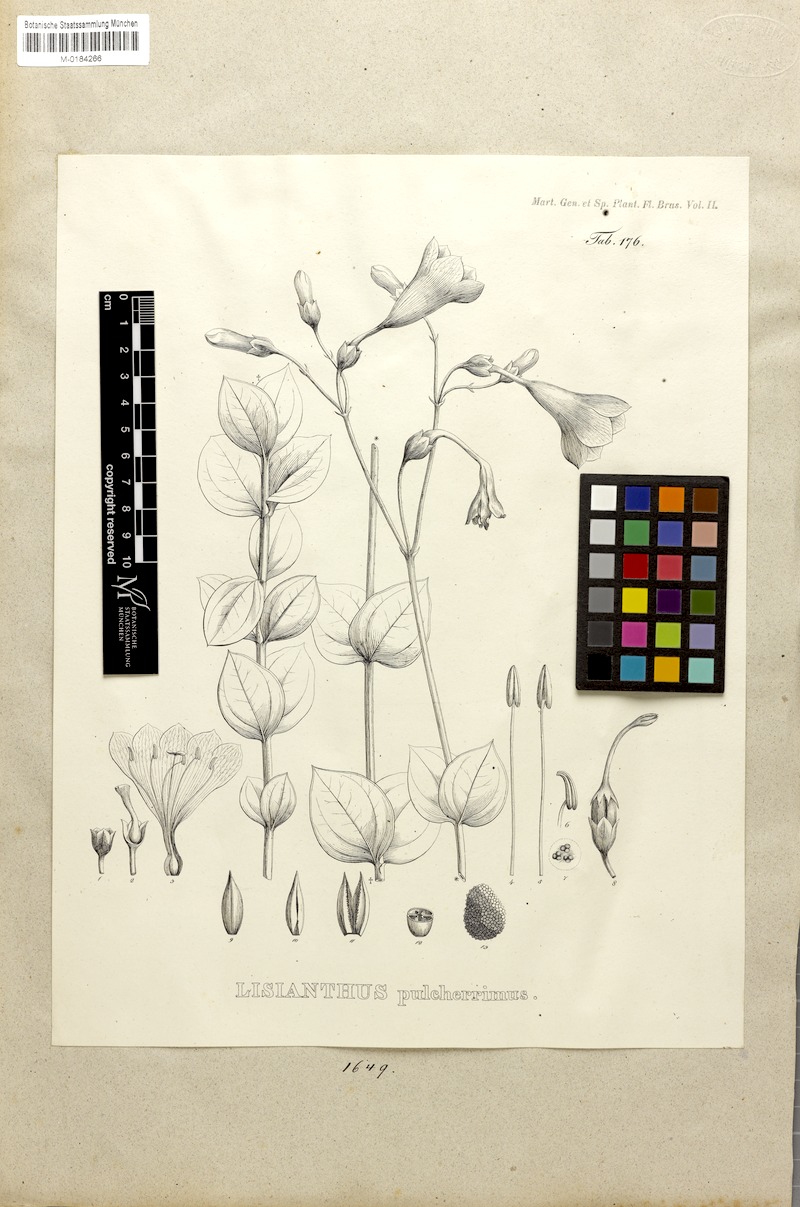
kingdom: Plantae
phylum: Tracheophyta
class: Magnoliopsida
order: Gentianales
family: Gentianaceae
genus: Calolisianthus
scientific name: Calolisianthus pulcherrimus
